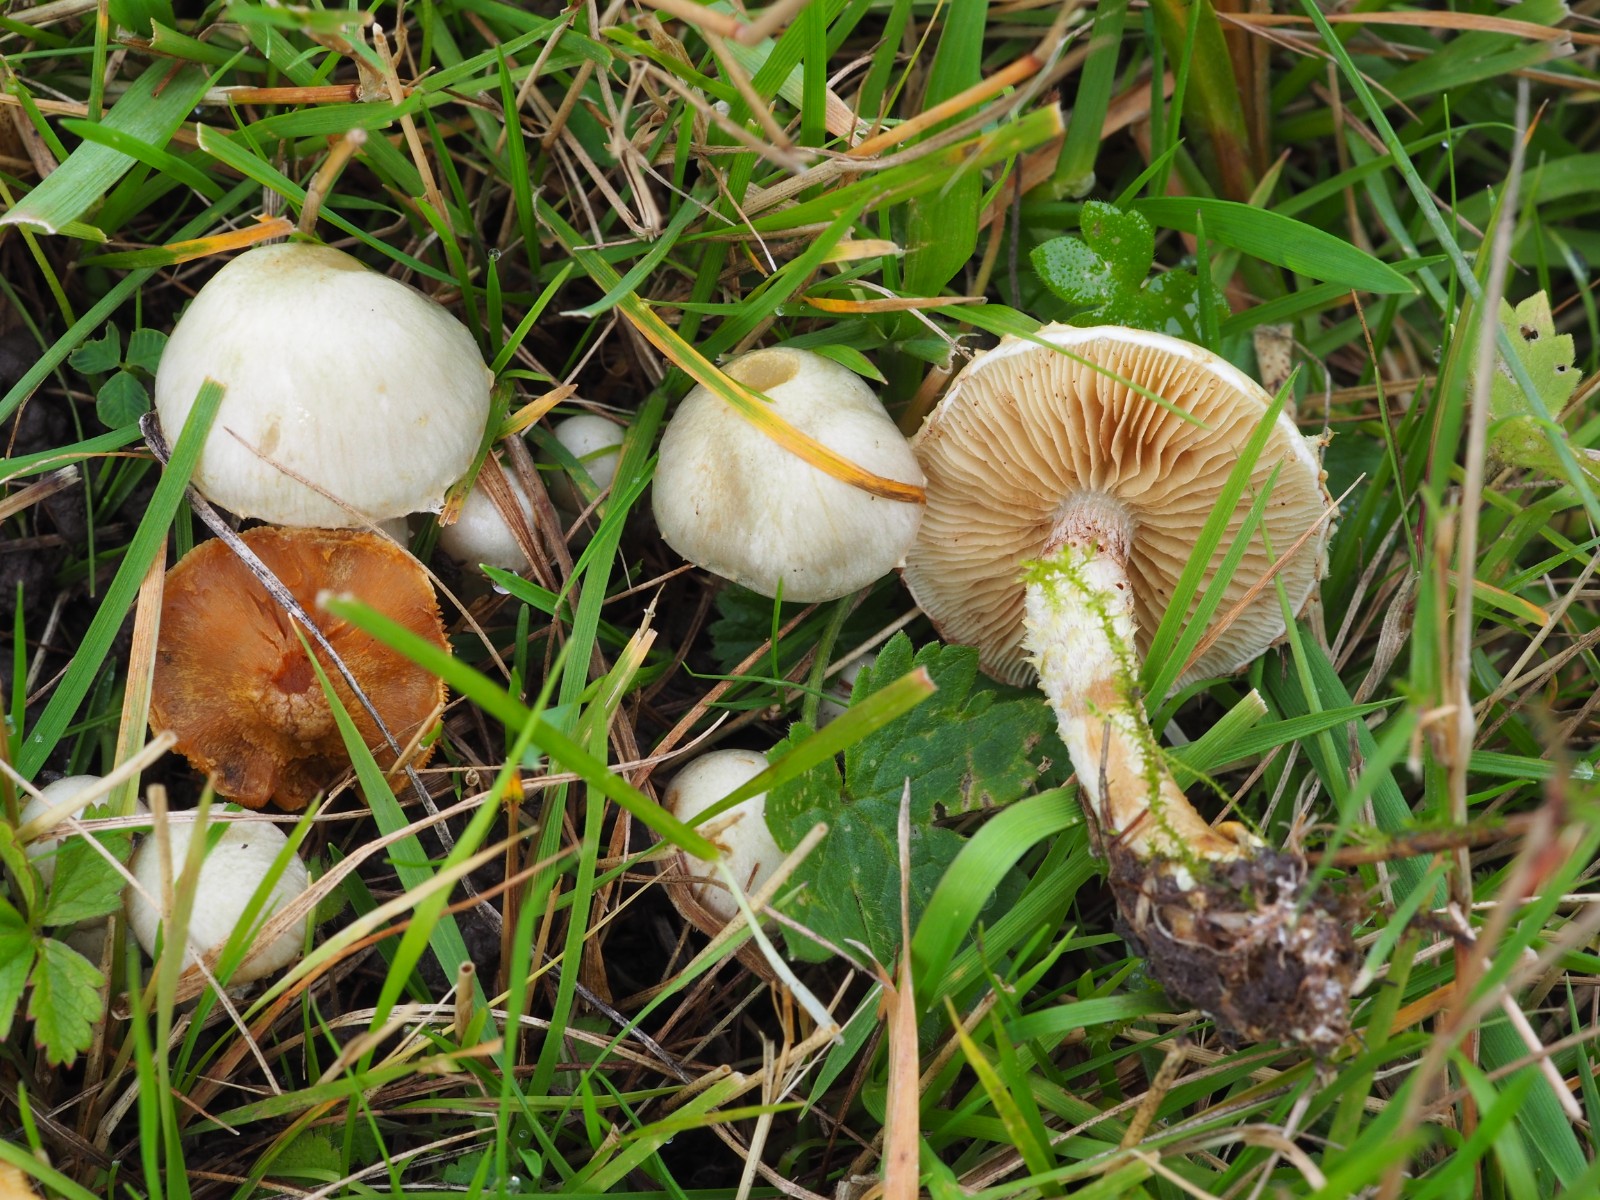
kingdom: Fungi
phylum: Basidiomycota
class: Agaricomycetes
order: Agaricales
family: Strophariaceae
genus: Pholiota
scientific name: Pholiota gummosa
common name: grøngul skælhat
